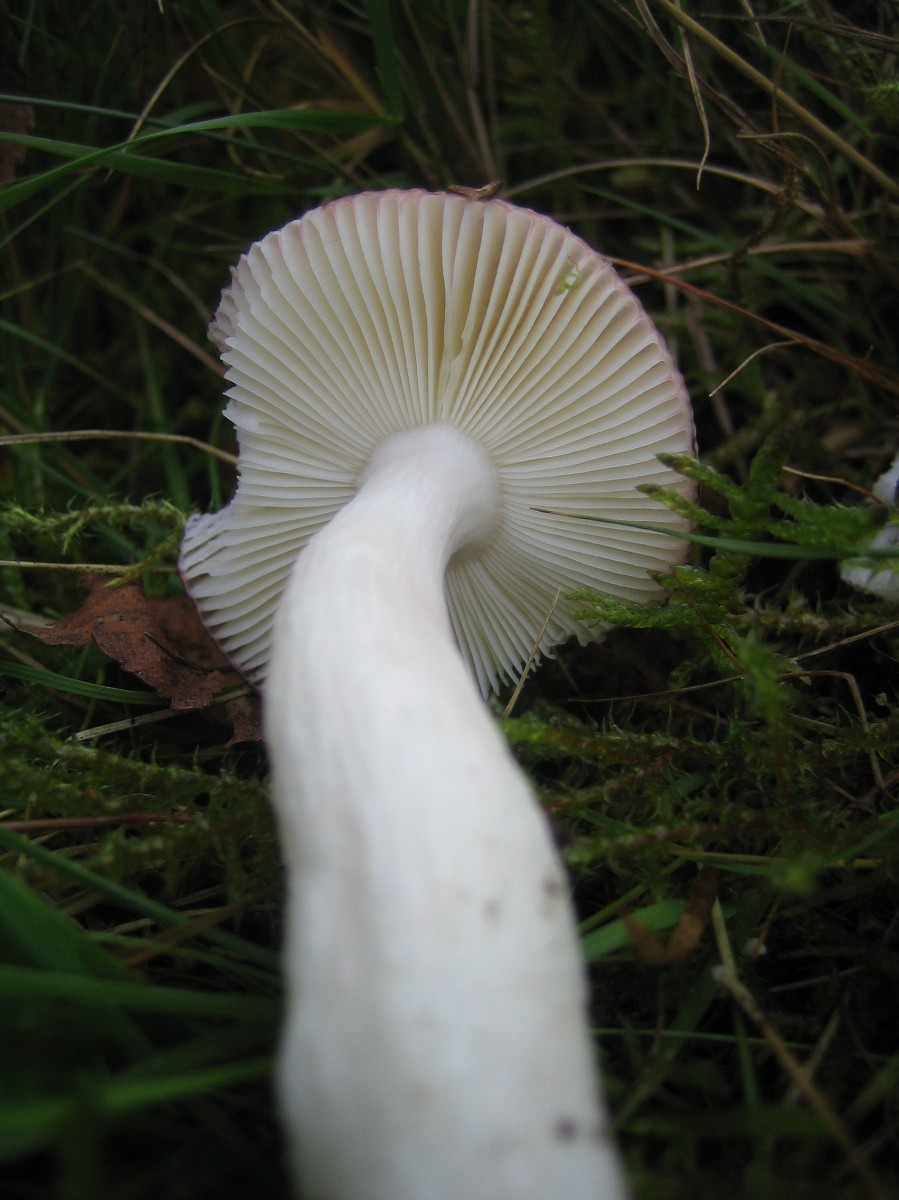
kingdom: Fungi
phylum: Basidiomycota
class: Agaricomycetes
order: Russulales
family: Russulaceae
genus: Russula
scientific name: Russula
